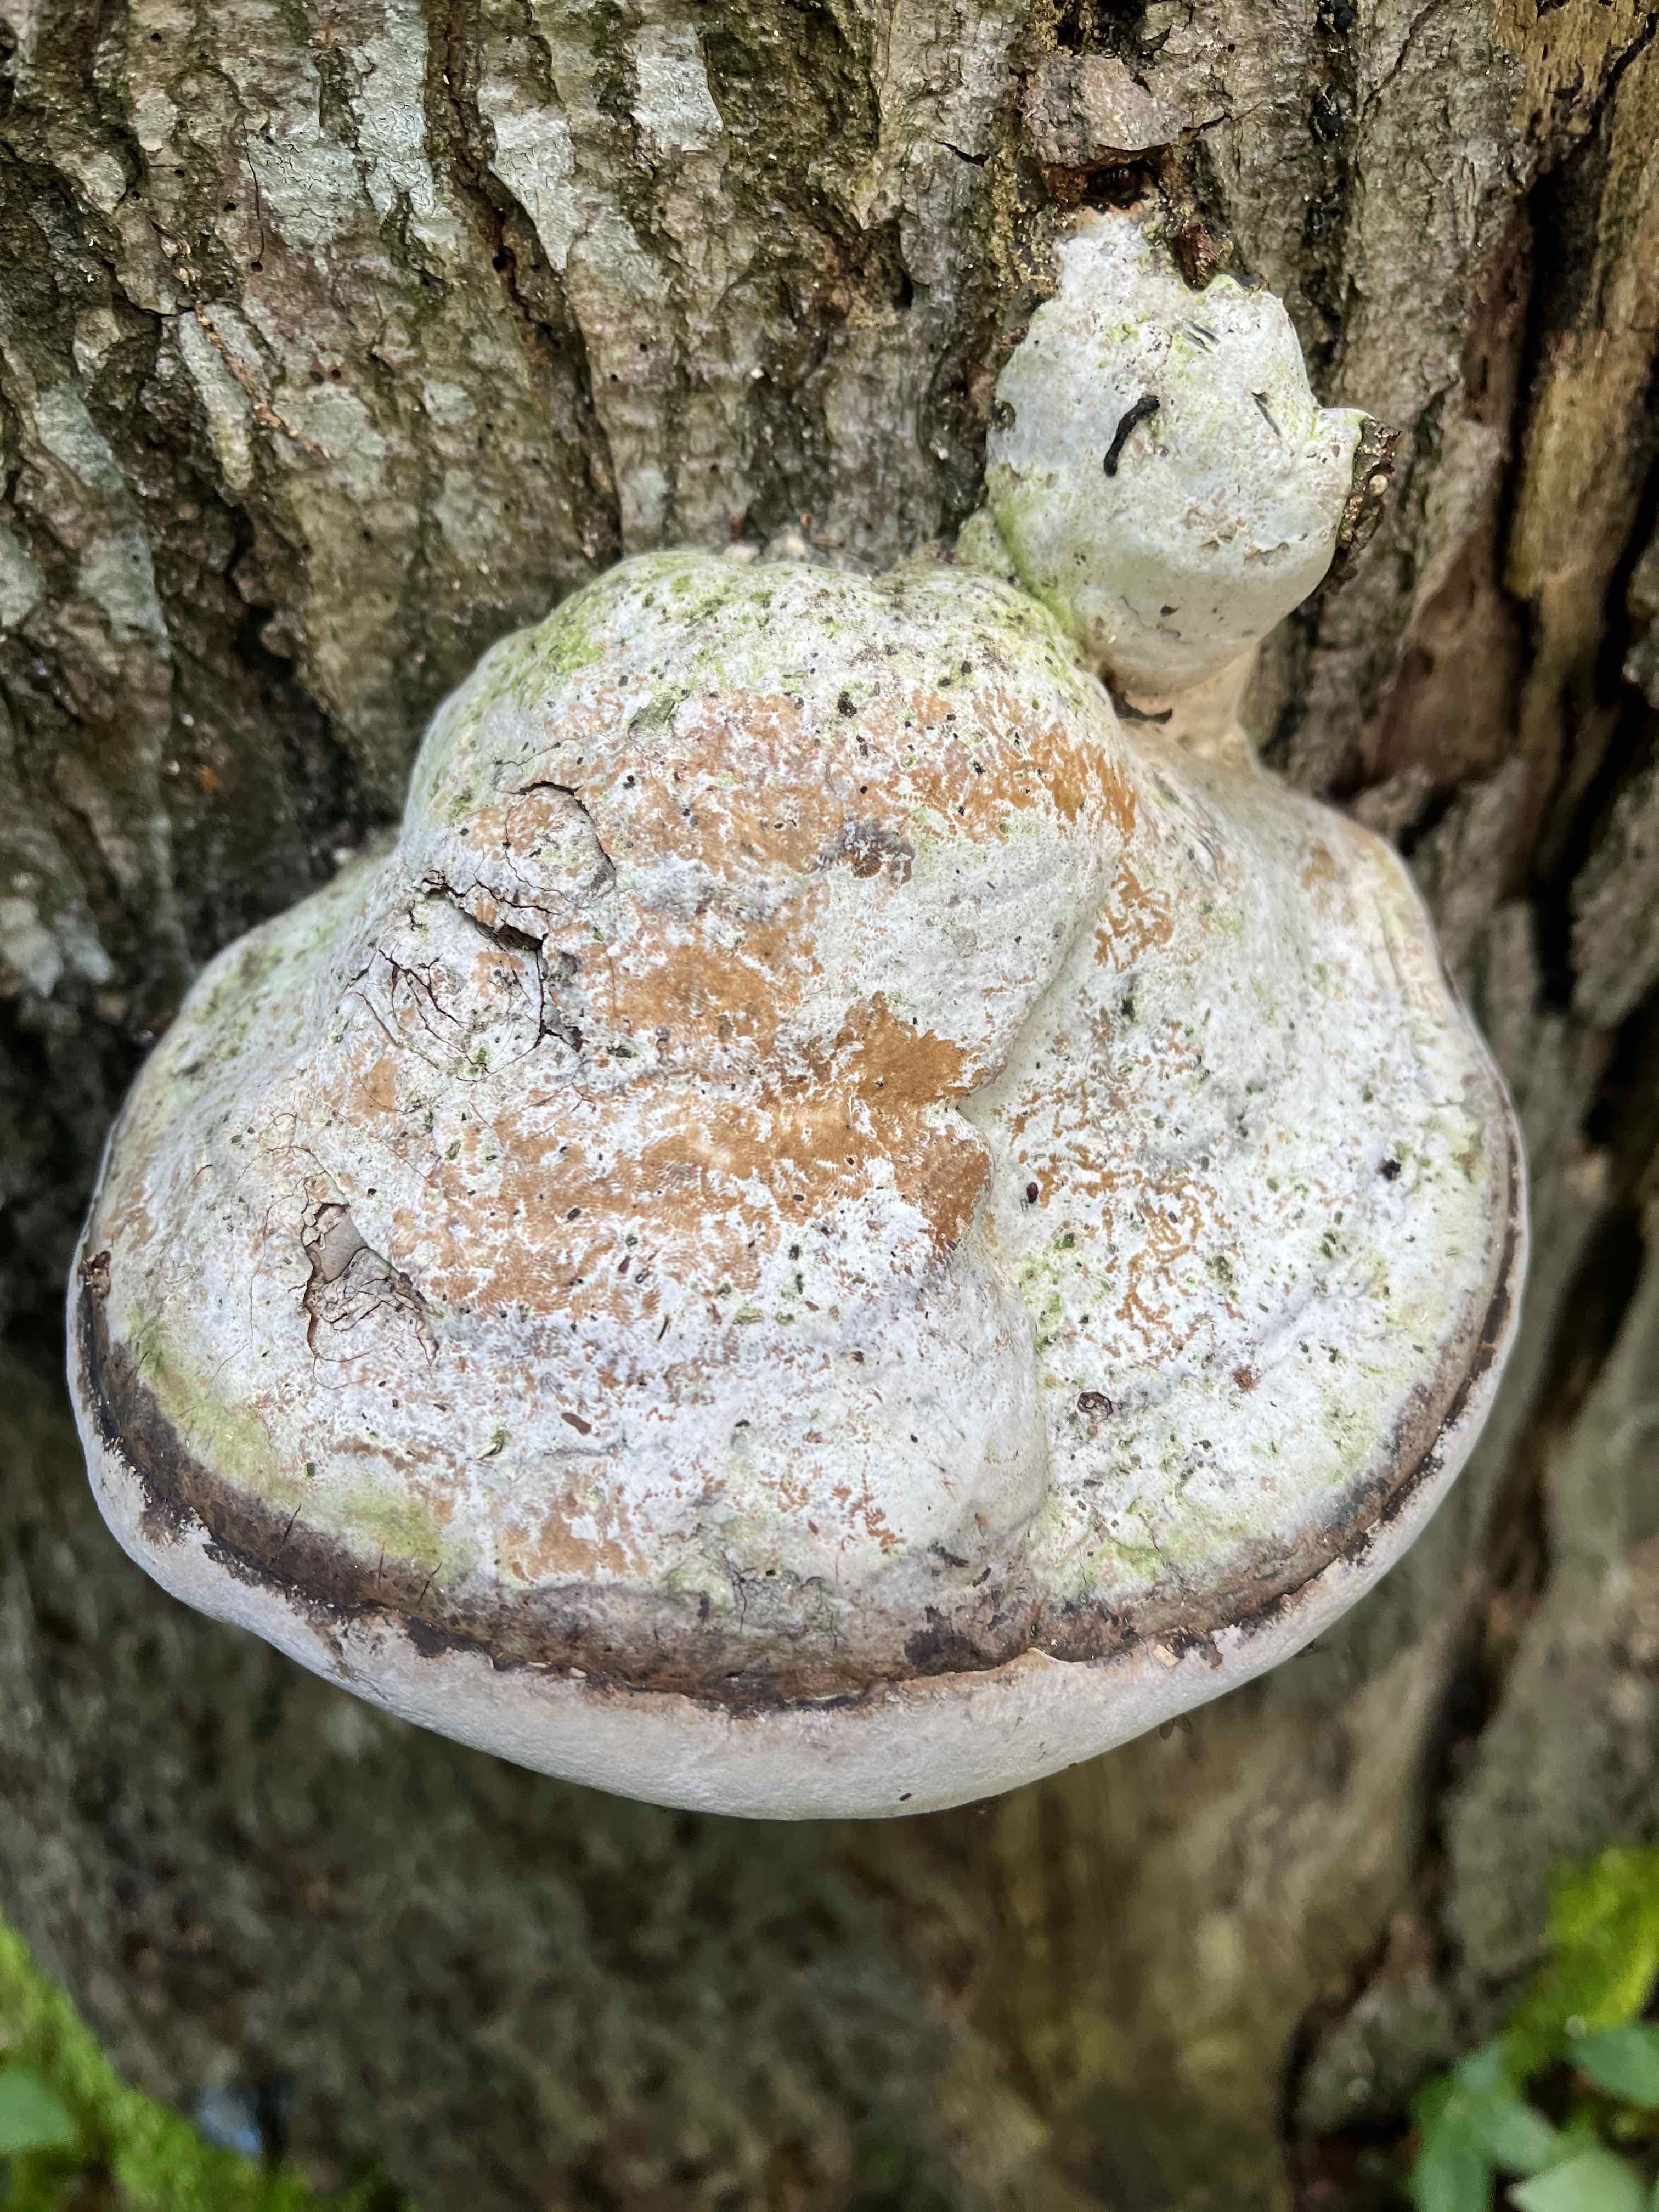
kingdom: Fungi
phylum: Basidiomycota
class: Agaricomycetes
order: Polyporales
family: Polyporaceae
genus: Fomes
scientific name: Fomes fomentarius
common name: tøndersvamp
